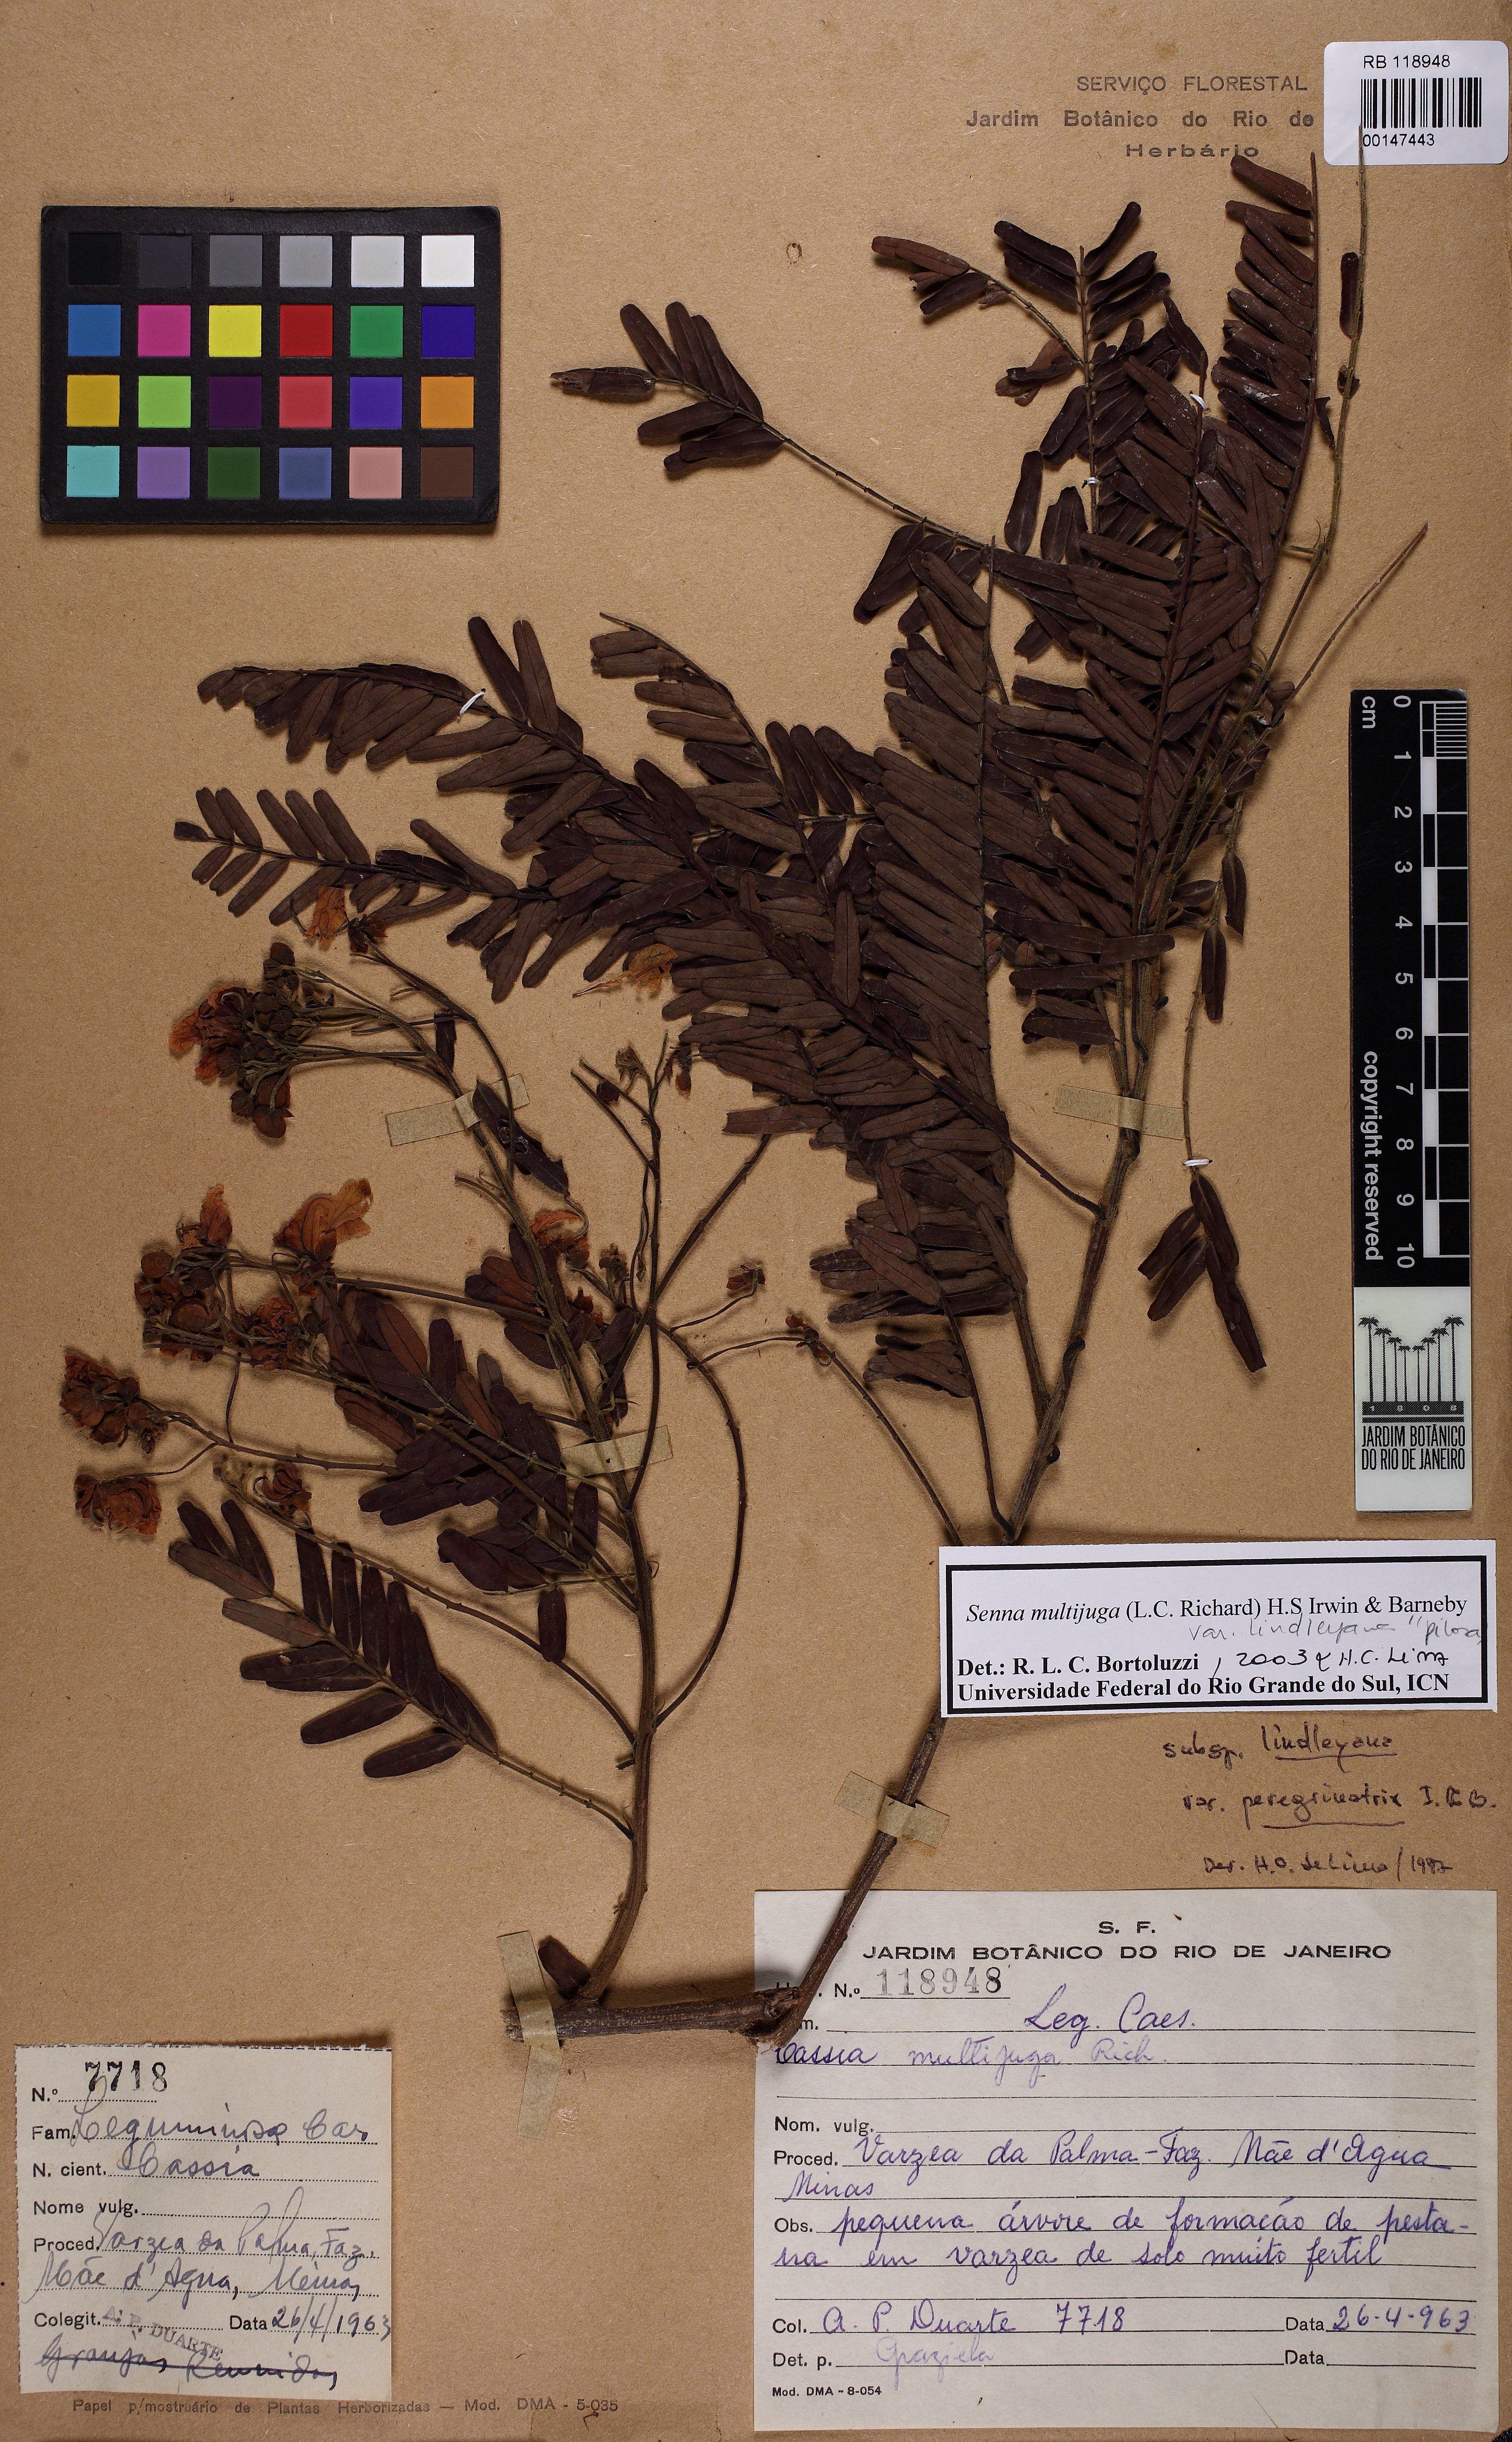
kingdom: Plantae
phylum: Tracheophyta
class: Magnoliopsida
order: Fabales
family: Fabaceae
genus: Senna
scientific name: Senna multijuga
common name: False sicklepod
